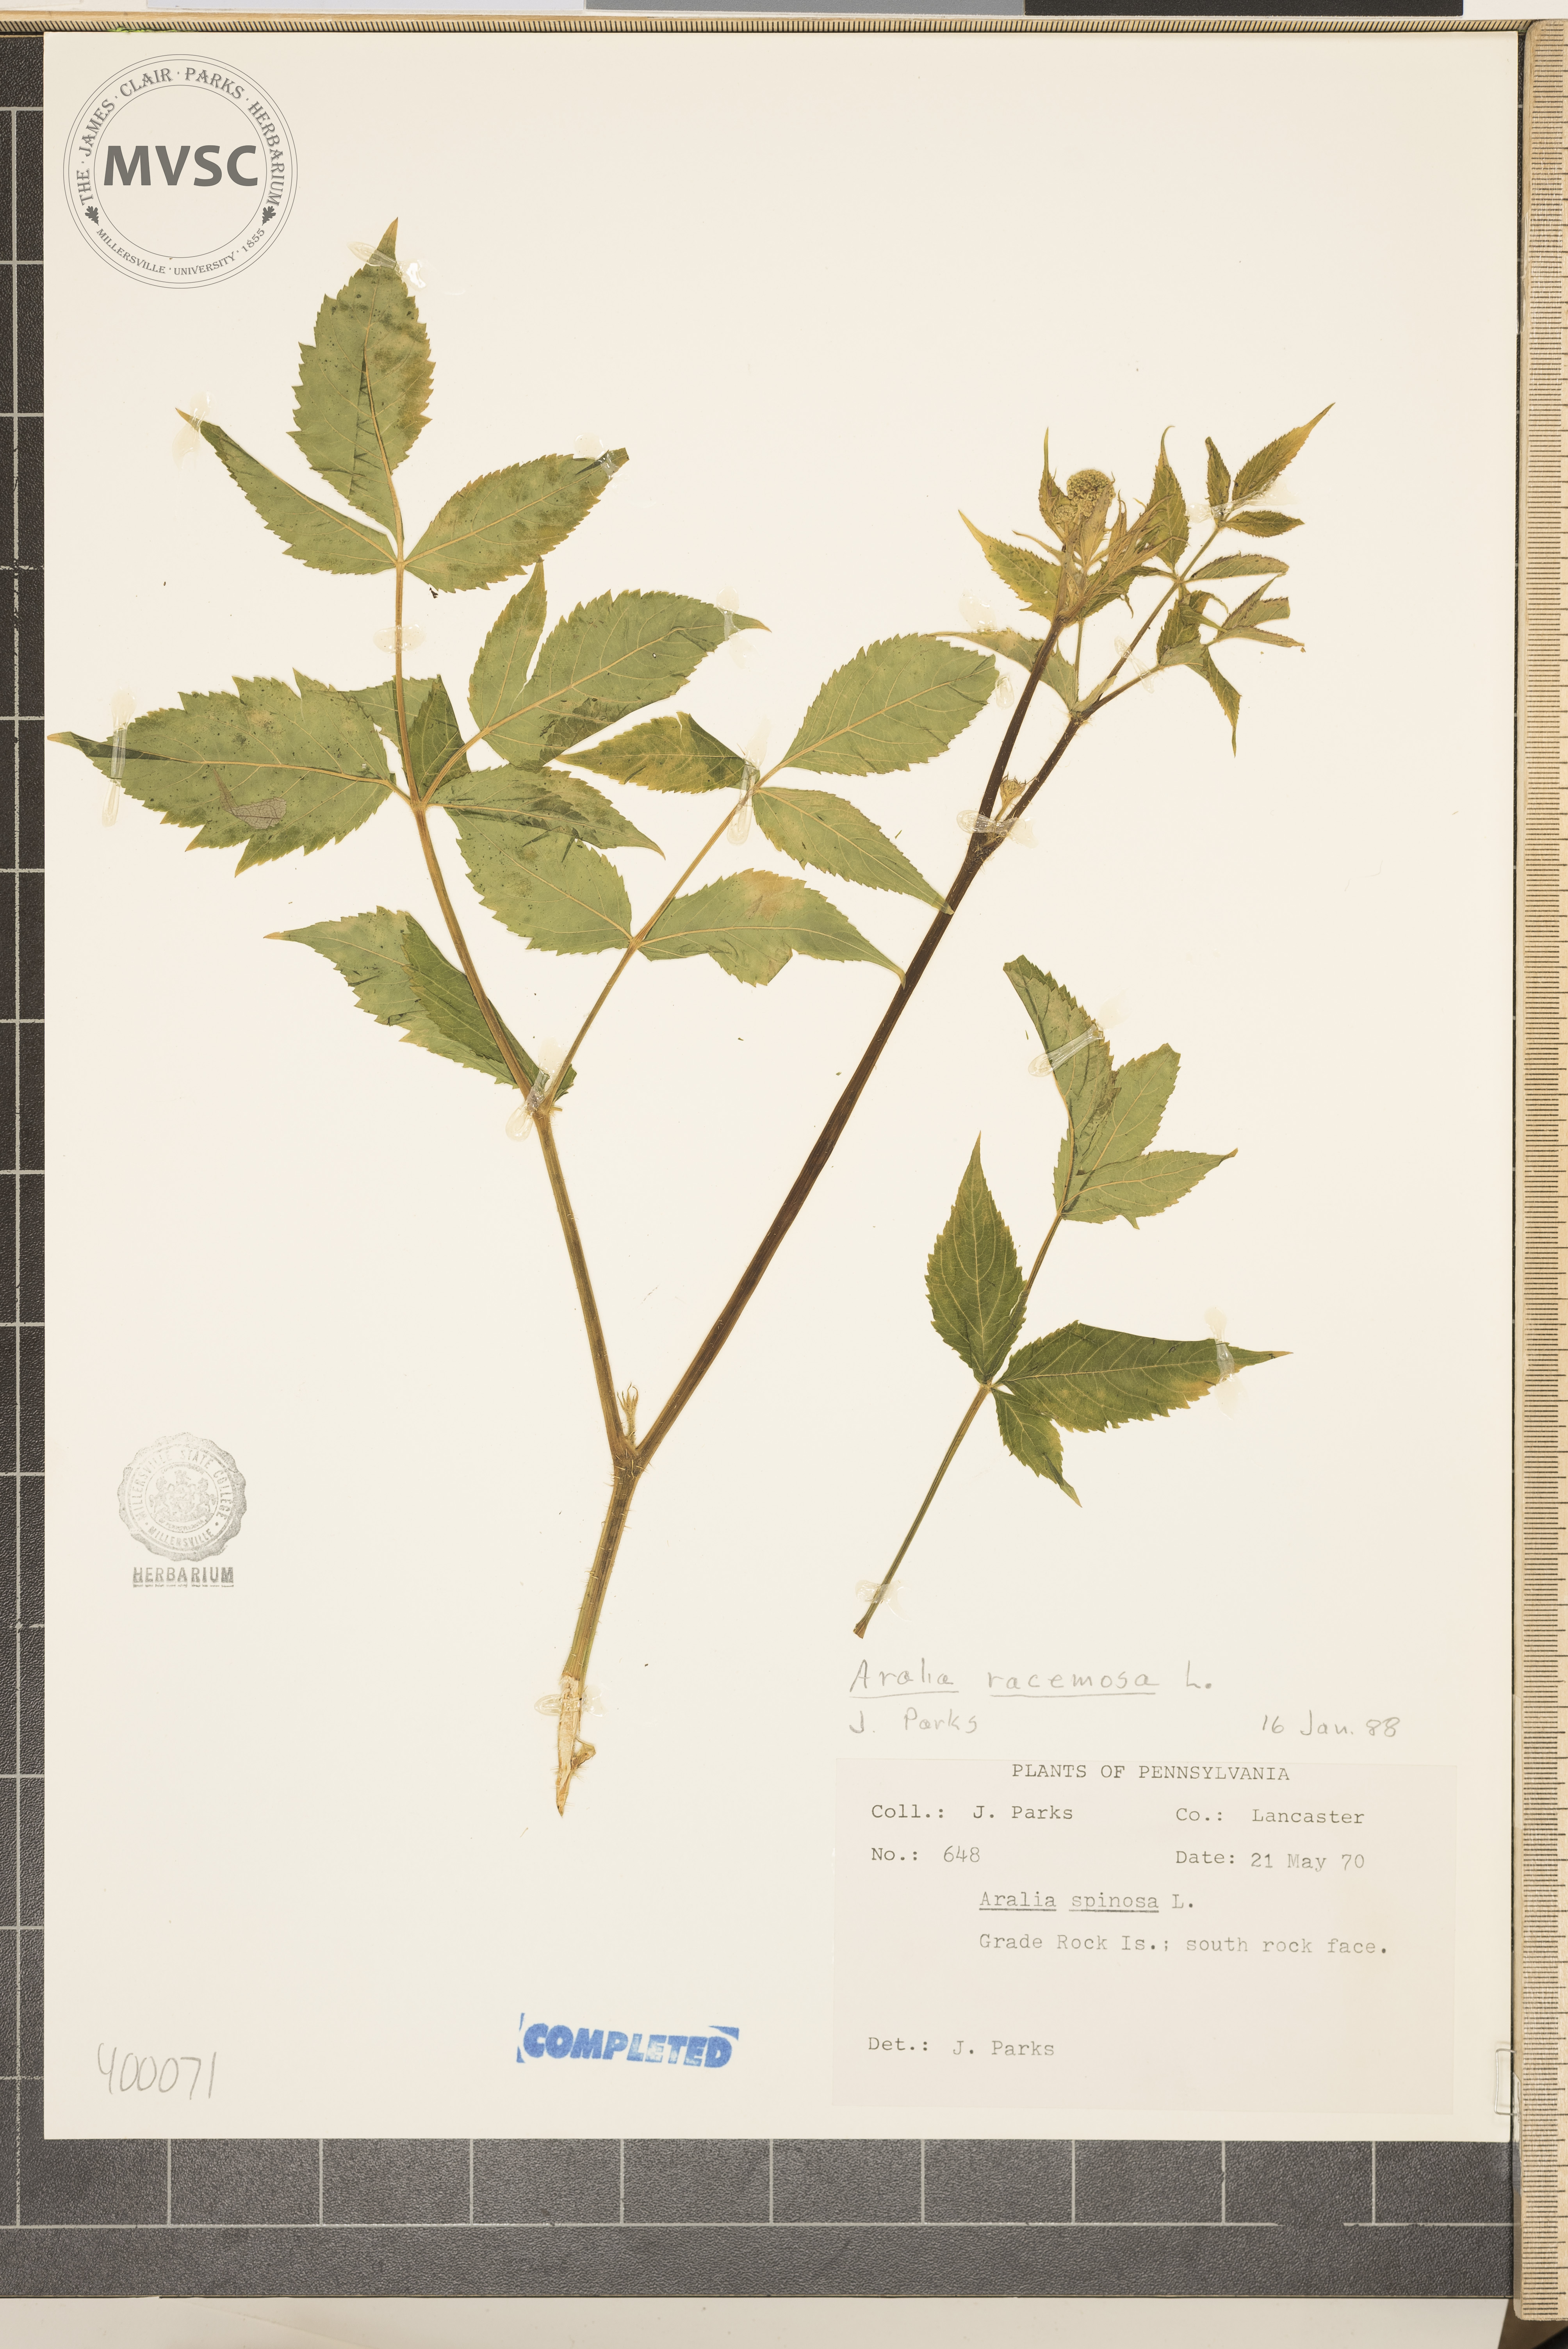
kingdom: Plantae
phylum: Tracheophyta
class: Magnoliopsida
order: Apiales
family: Araliaceae
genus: Aralia
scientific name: Aralia racemosa
